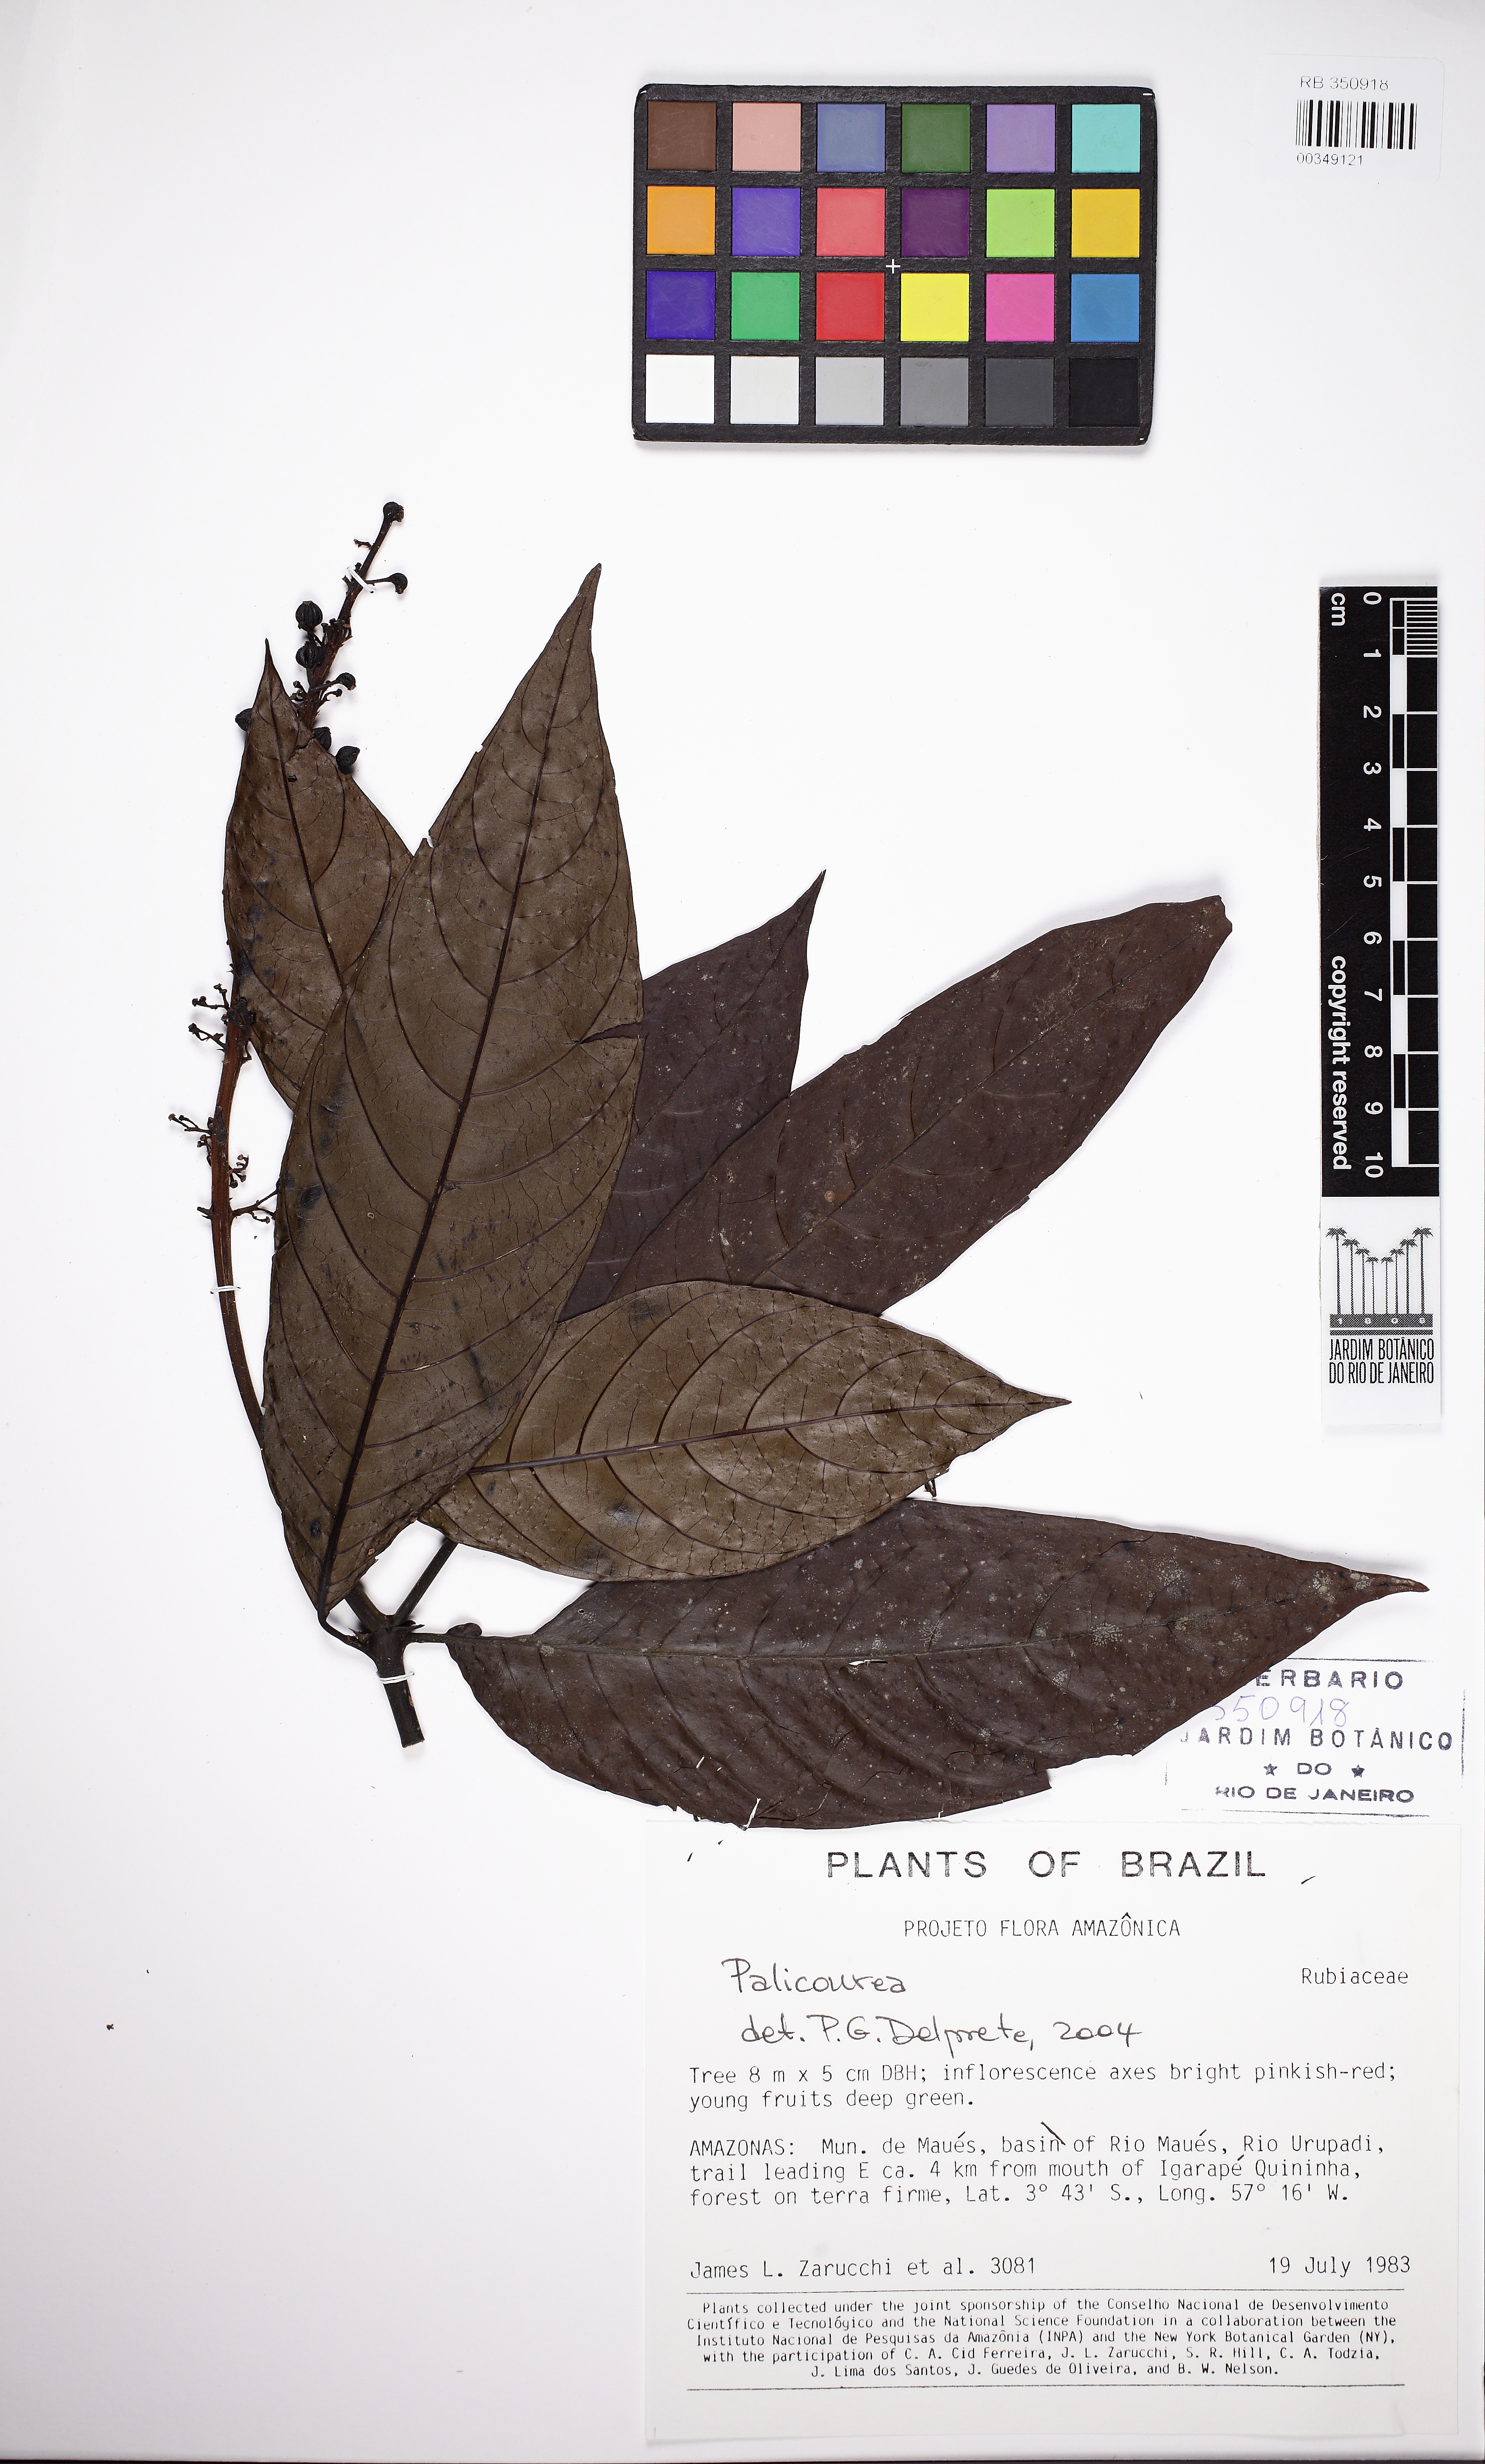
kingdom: Plantae
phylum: Tracheophyta
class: Magnoliopsida
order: Gentianales
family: Rubiaceae
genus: Palicourea
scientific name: Palicourea anisoloba
